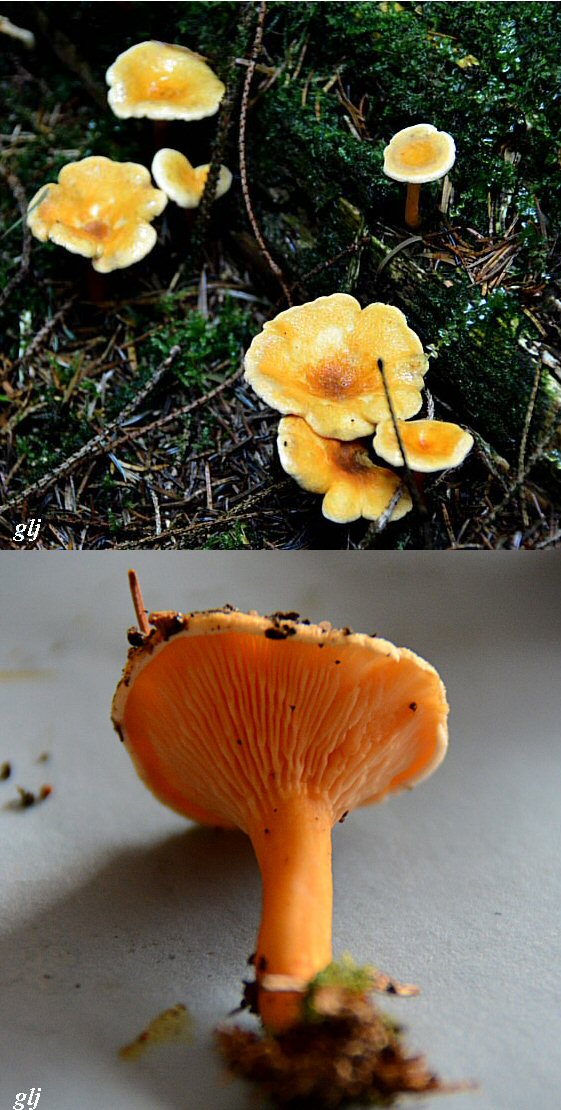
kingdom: Fungi
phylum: Basidiomycota
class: Agaricomycetes
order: Boletales
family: Hygrophoropsidaceae
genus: Hygrophoropsis
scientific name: Hygrophoropsis aurantiaca
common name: almindelig orangekantarel
